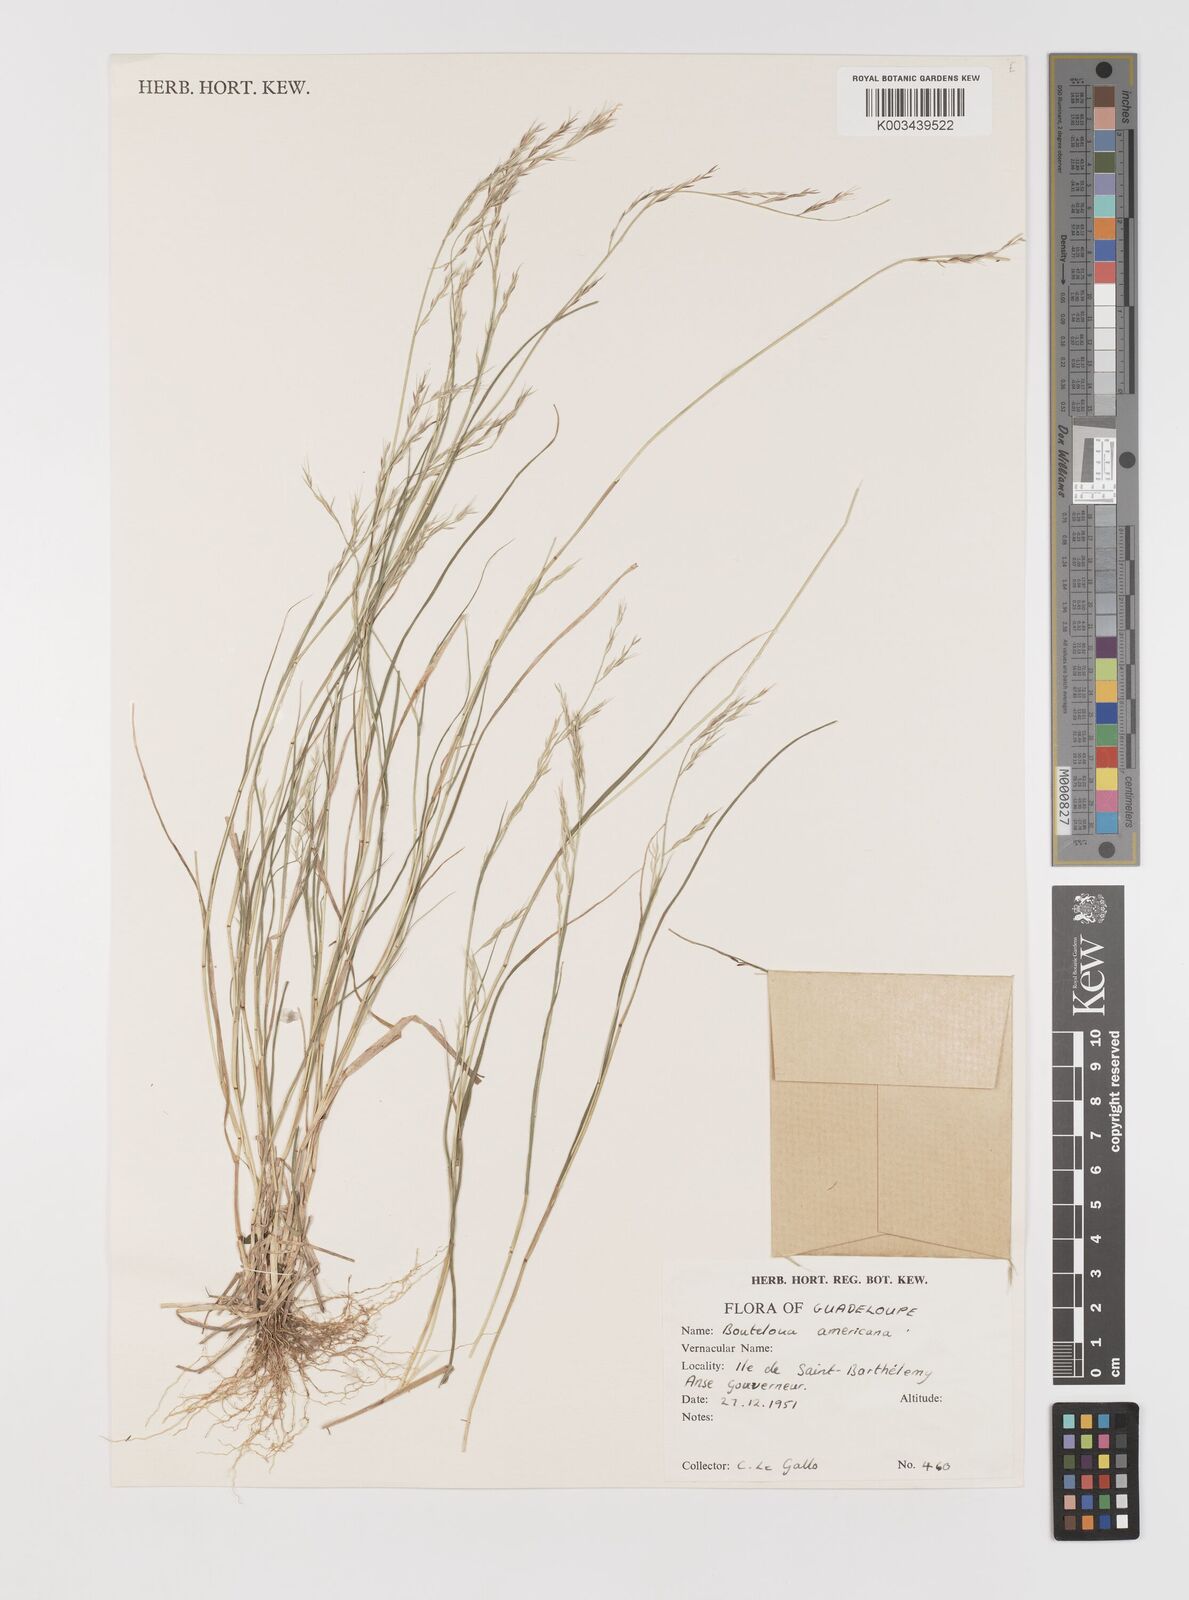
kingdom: Plantae
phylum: Tracheophyta
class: Liliopsida
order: Poales
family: Poaceae
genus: Bouteloua
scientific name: Bouteloua americana
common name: Mule grass
